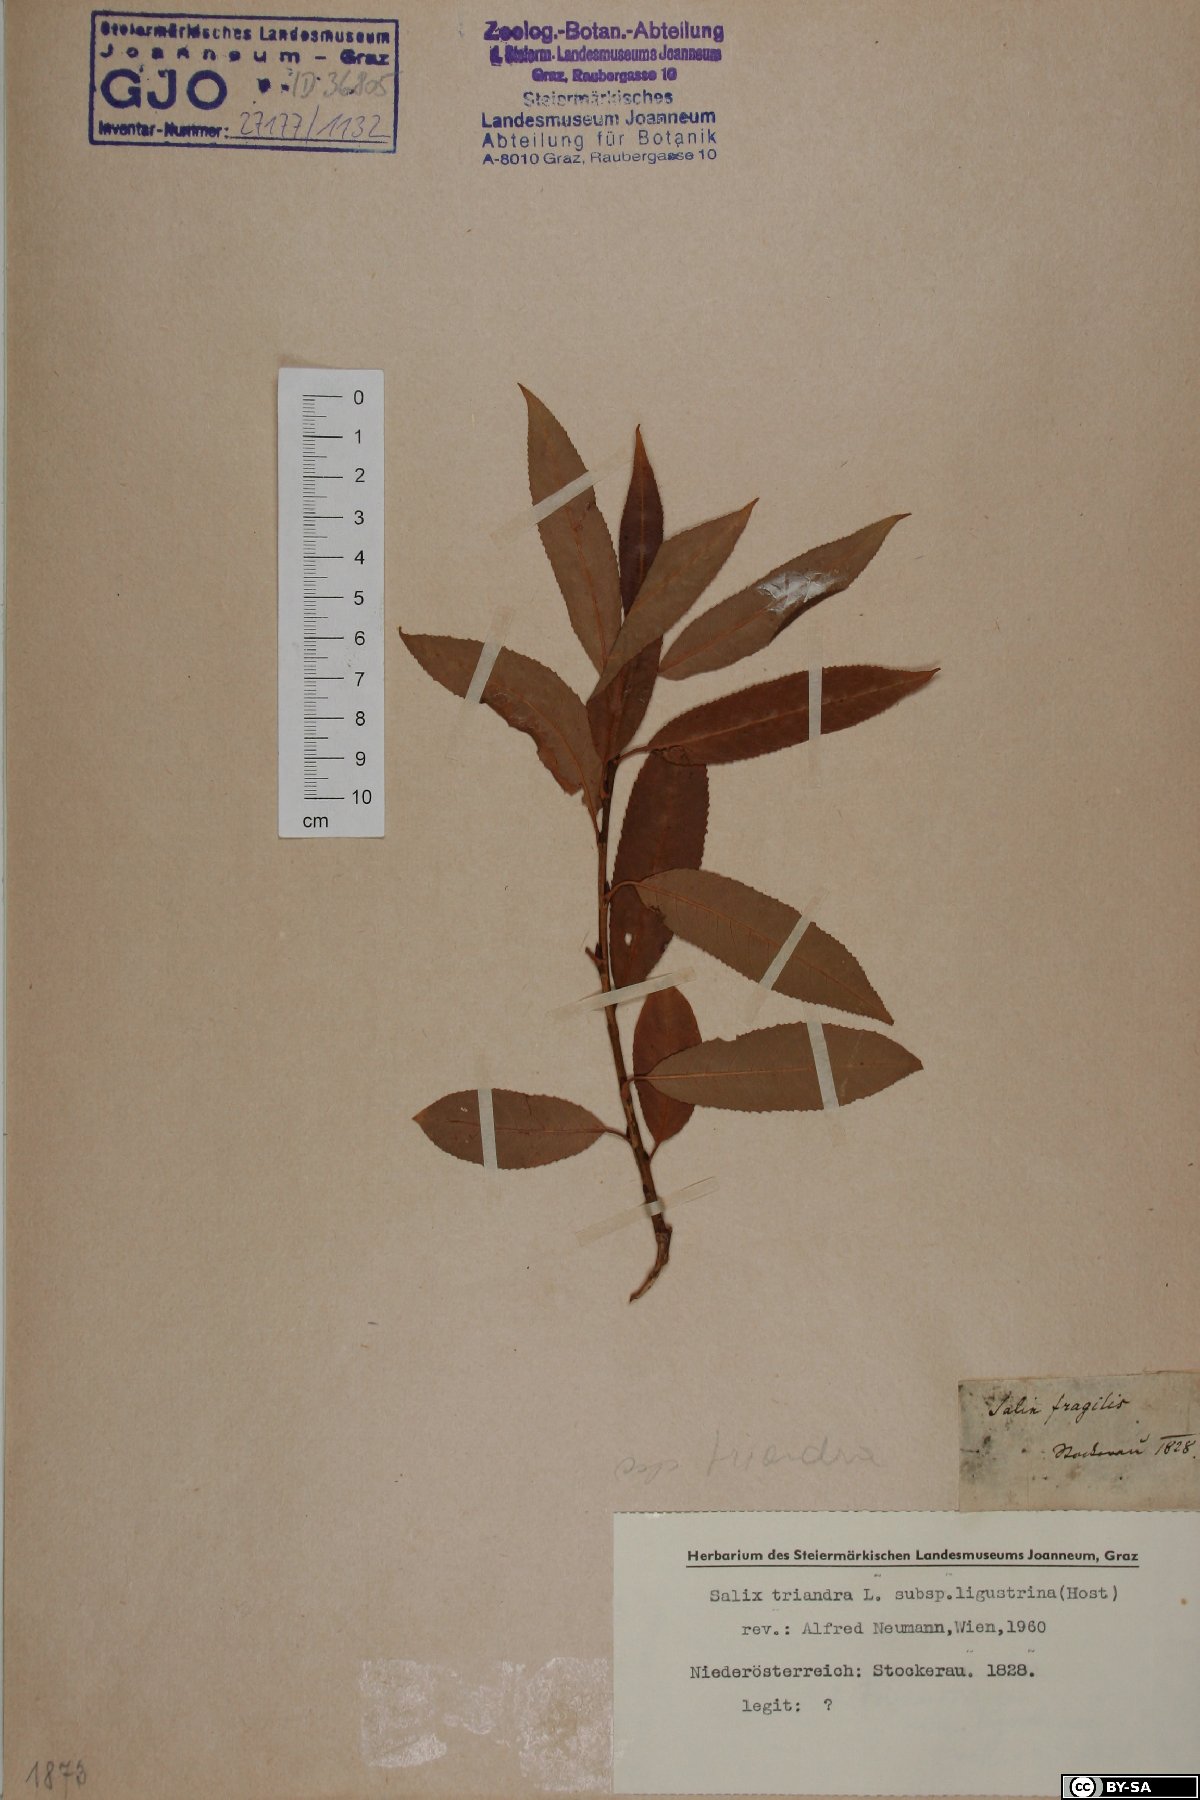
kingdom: Plantae
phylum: Tracheophyta
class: Magnoliopsida
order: Malpighiales
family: Salicaceae
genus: Salix
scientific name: Salix triandra
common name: Almond willow
